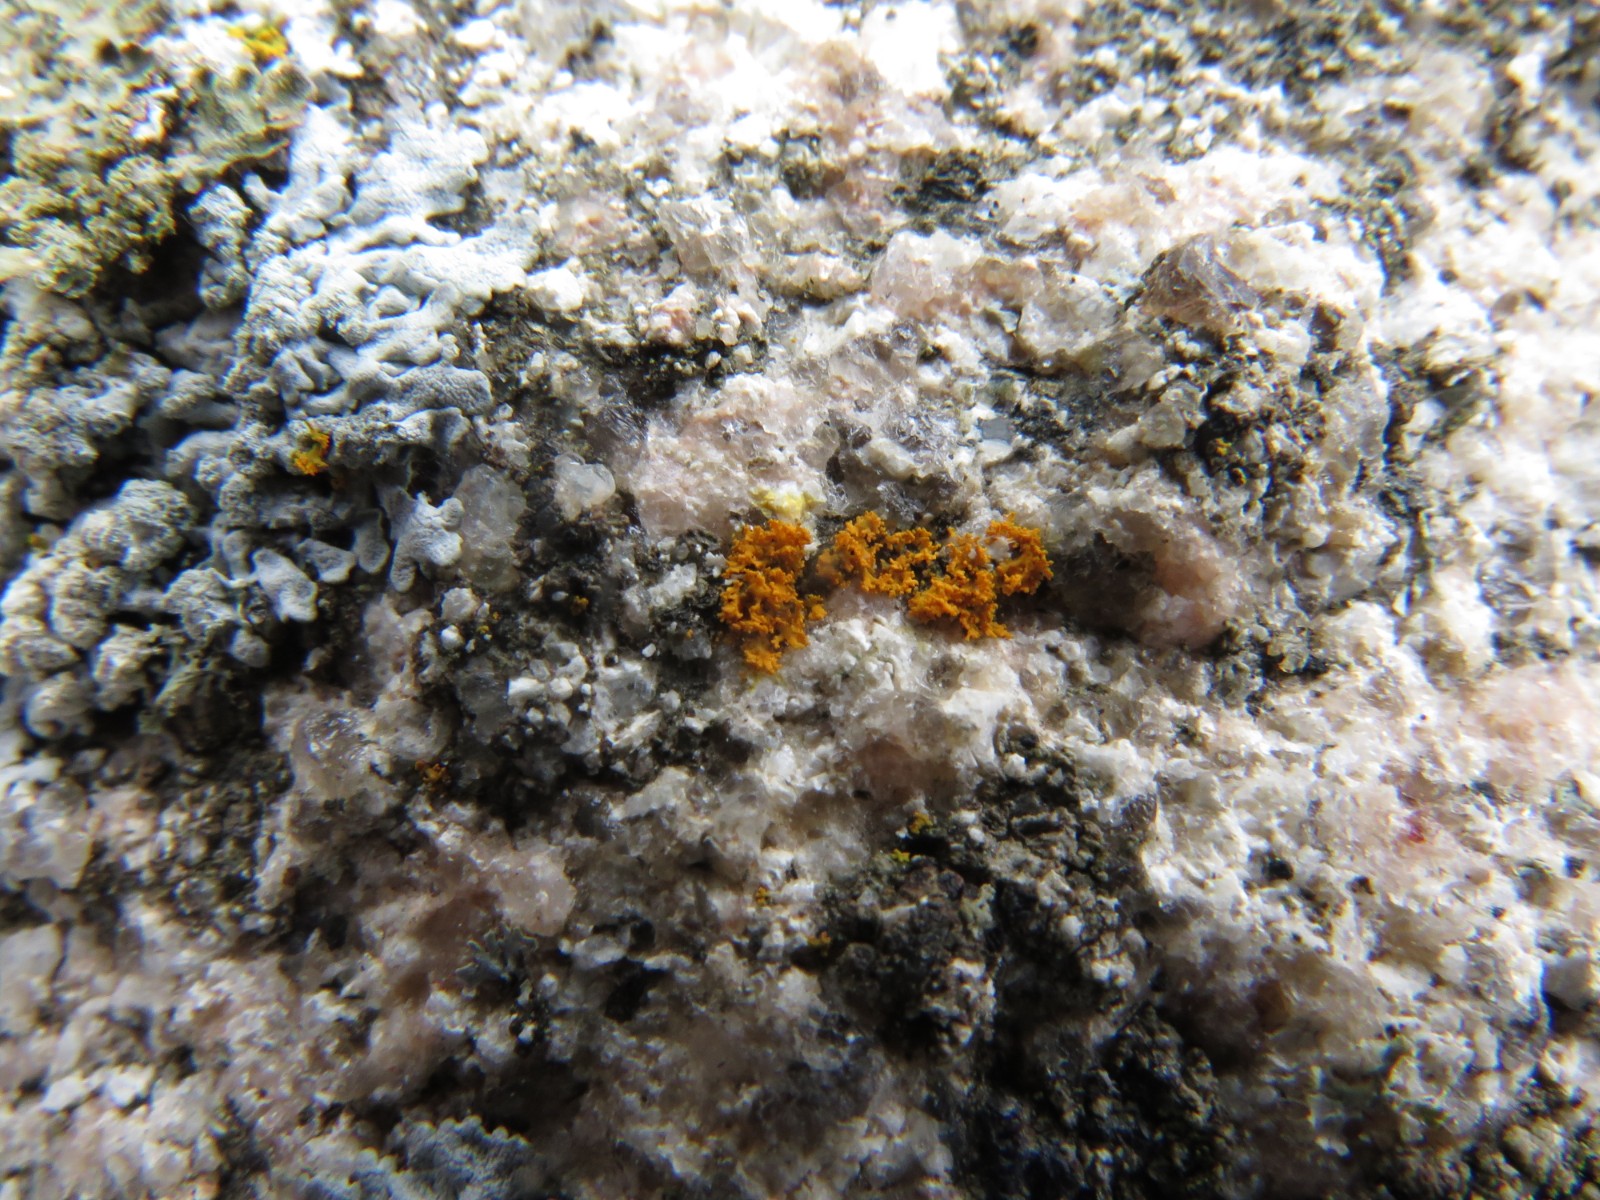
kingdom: Fungi
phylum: Ascomycota
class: Lecanoromycetes
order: Teloschistales
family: Teloschistaceae
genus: Polycauliona
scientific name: Polycauliona candelaria
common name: tue-orangelav
